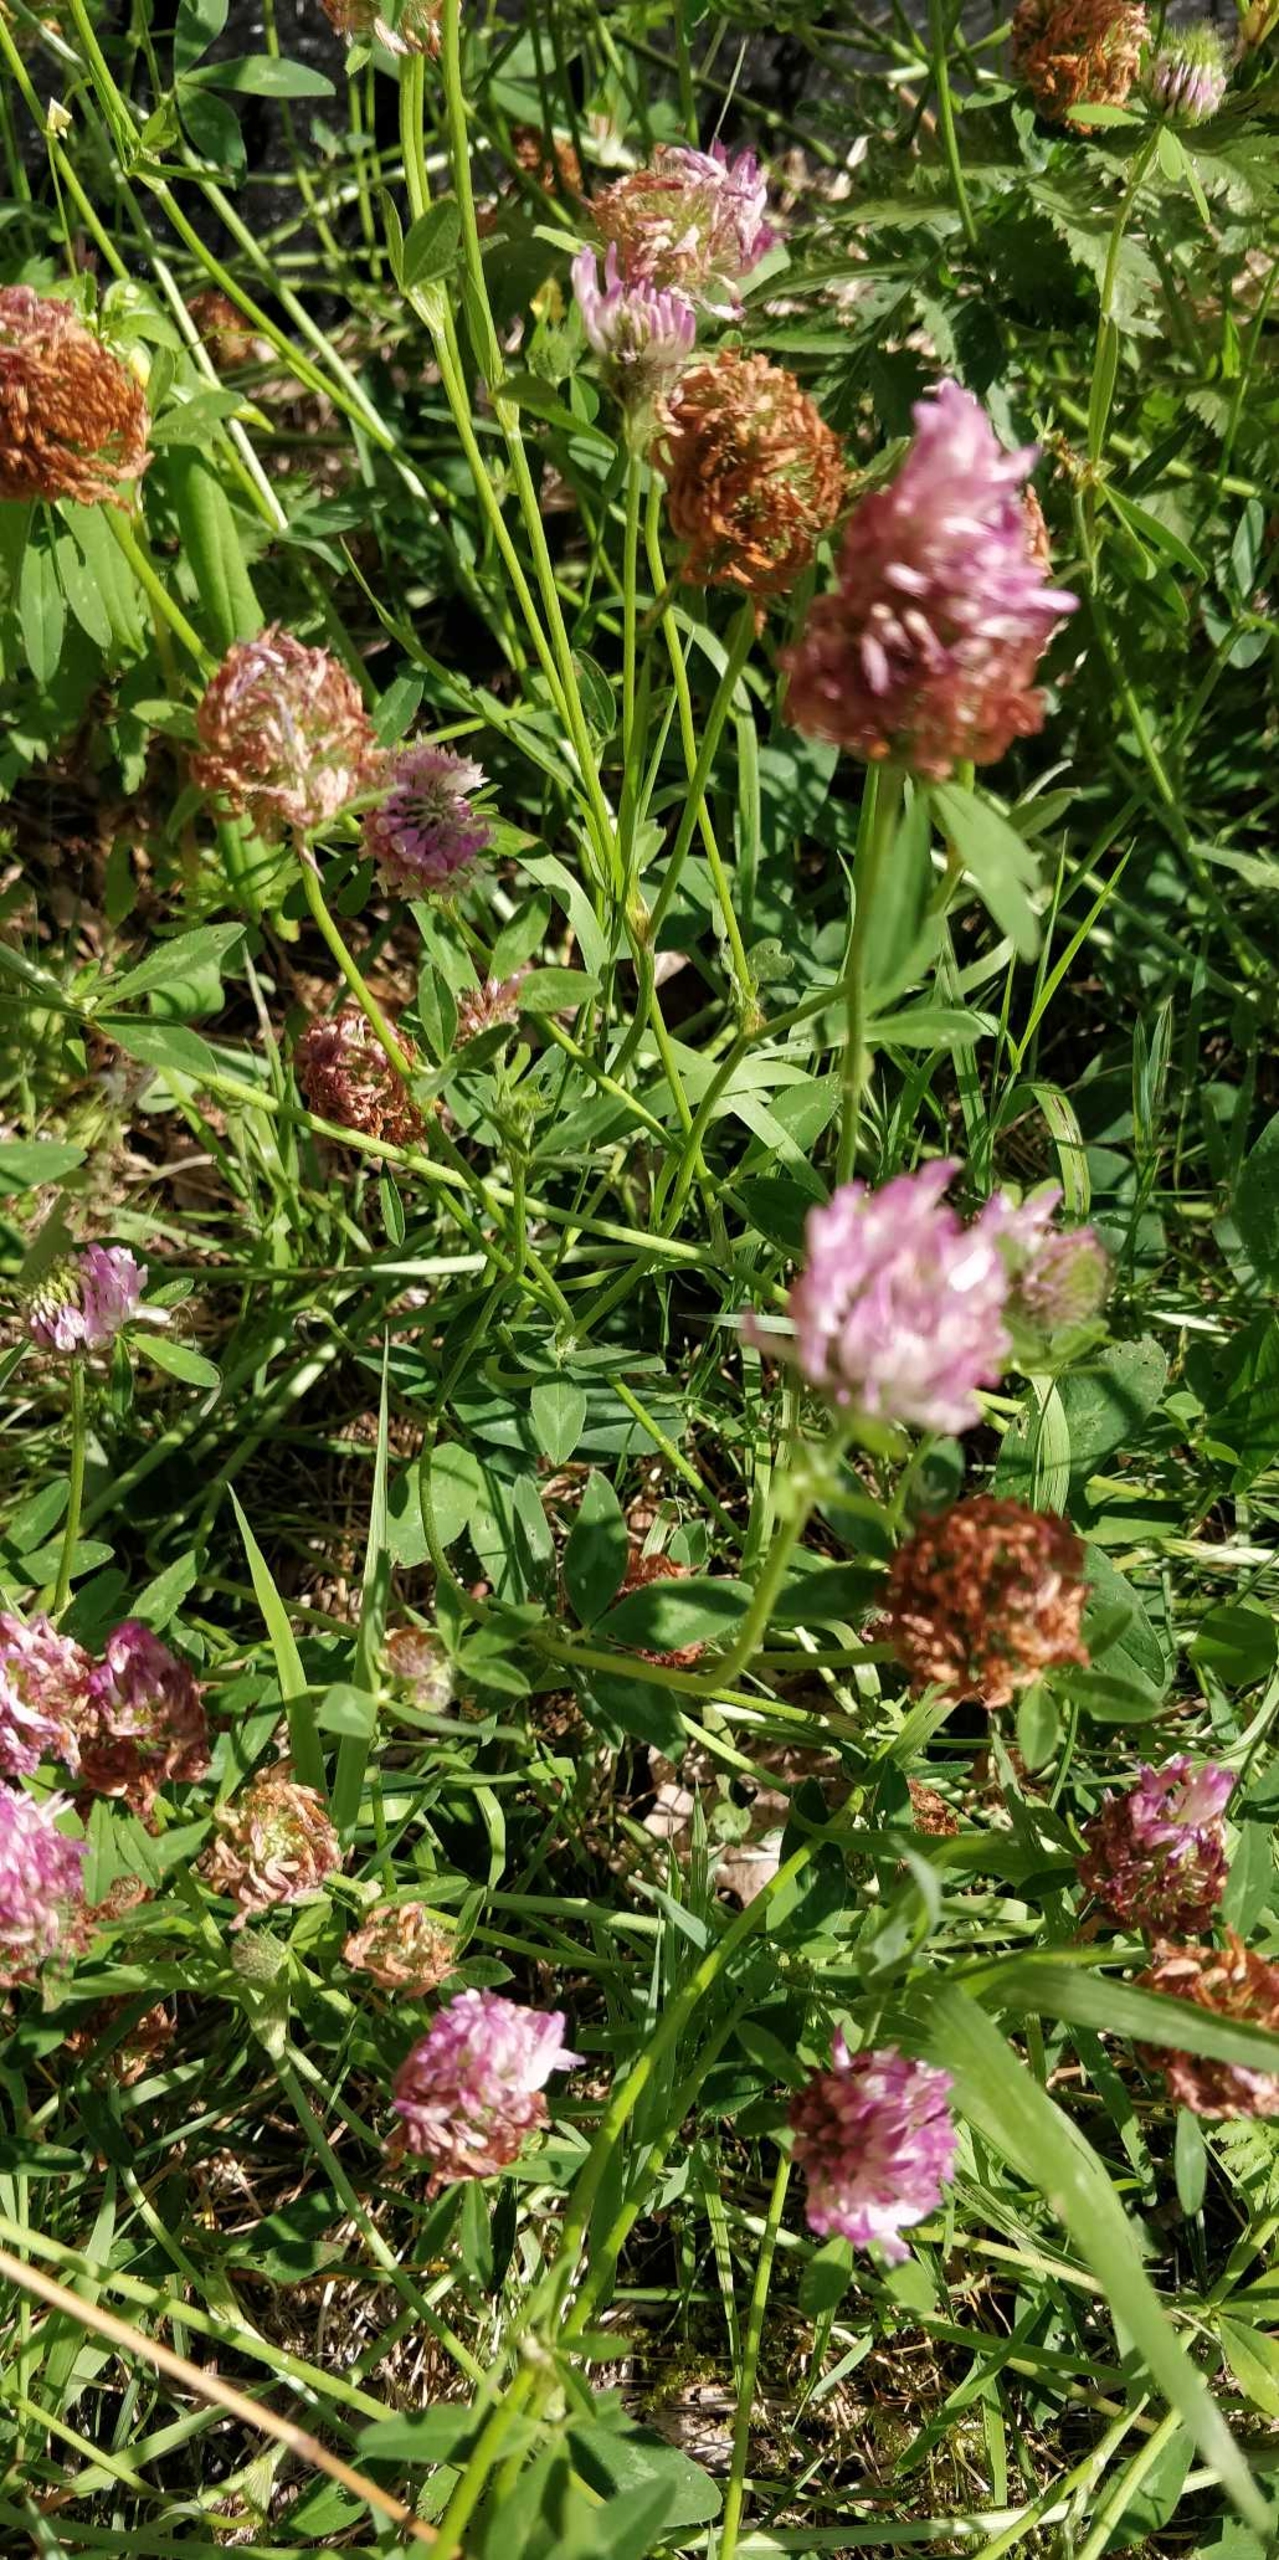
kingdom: Plantae
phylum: Tracheophyta
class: Magnoliopsida
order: Fabales
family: Fabaceae
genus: Trifolium
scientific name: Trifolium pratense
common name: Rød-kløver
